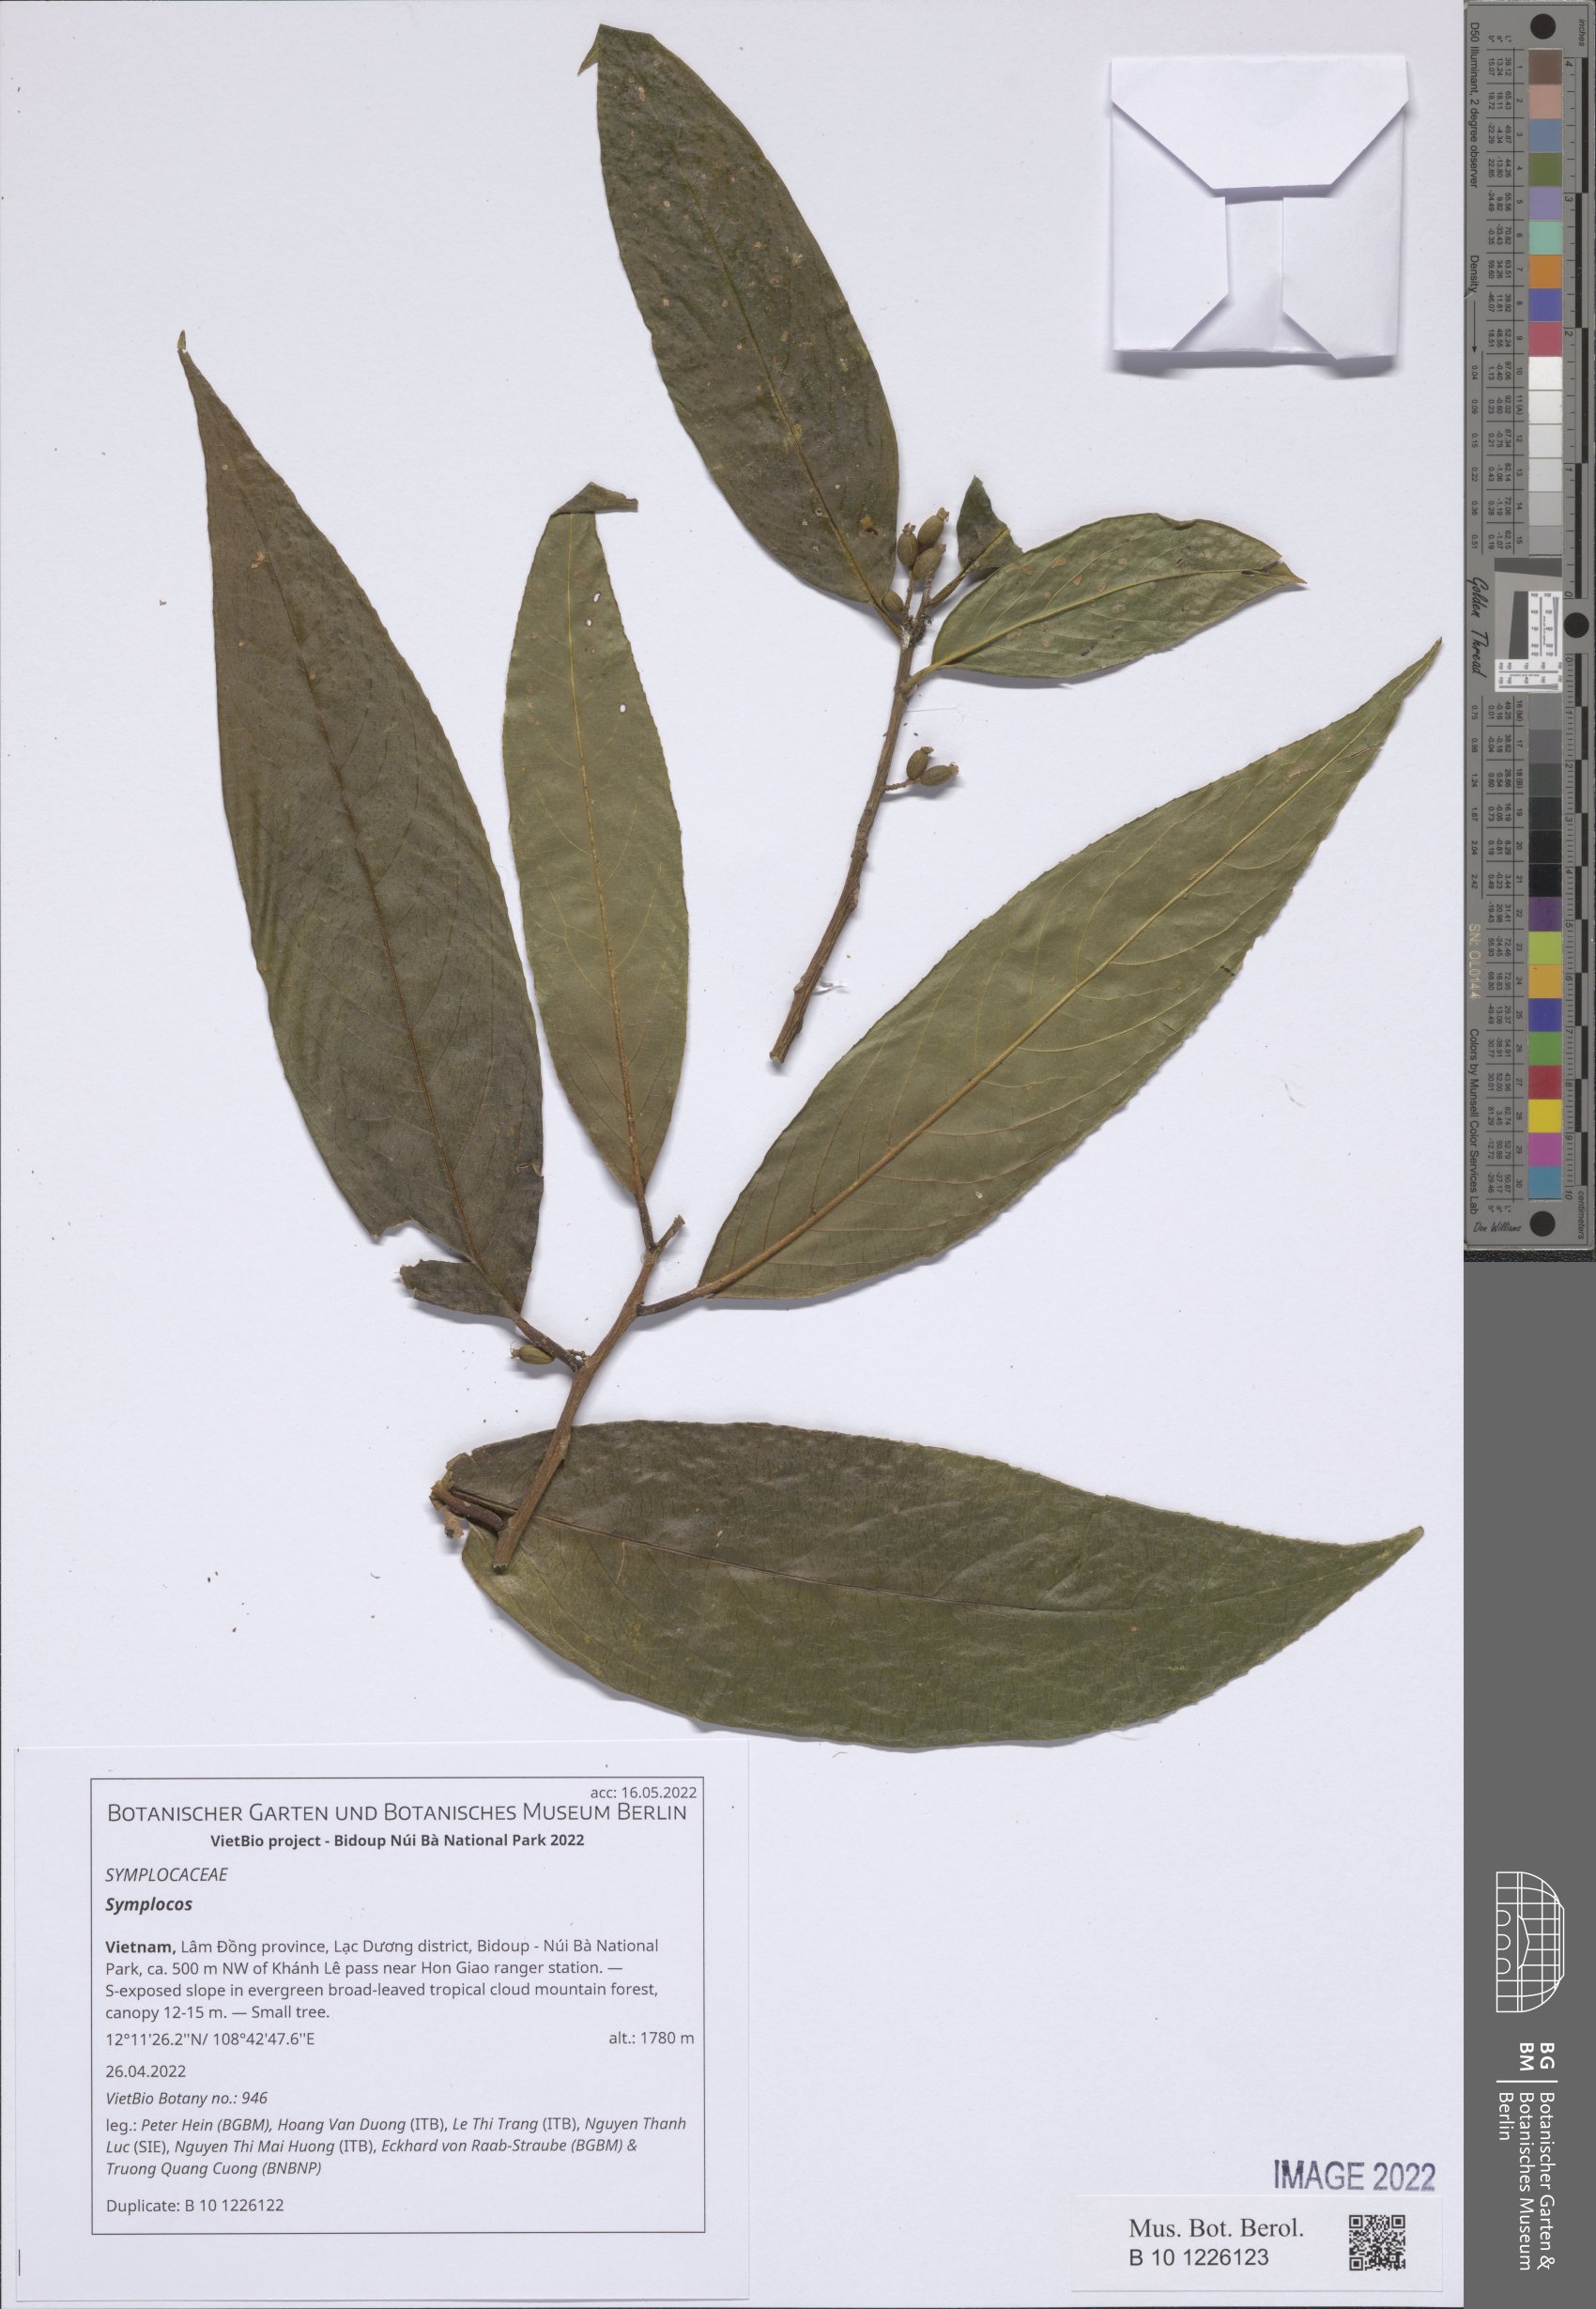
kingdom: Plantae
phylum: Tracheophyta
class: Magnoliopsida
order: Ericales
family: Symplocaceae
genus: Symplocos
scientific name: Symplocos
